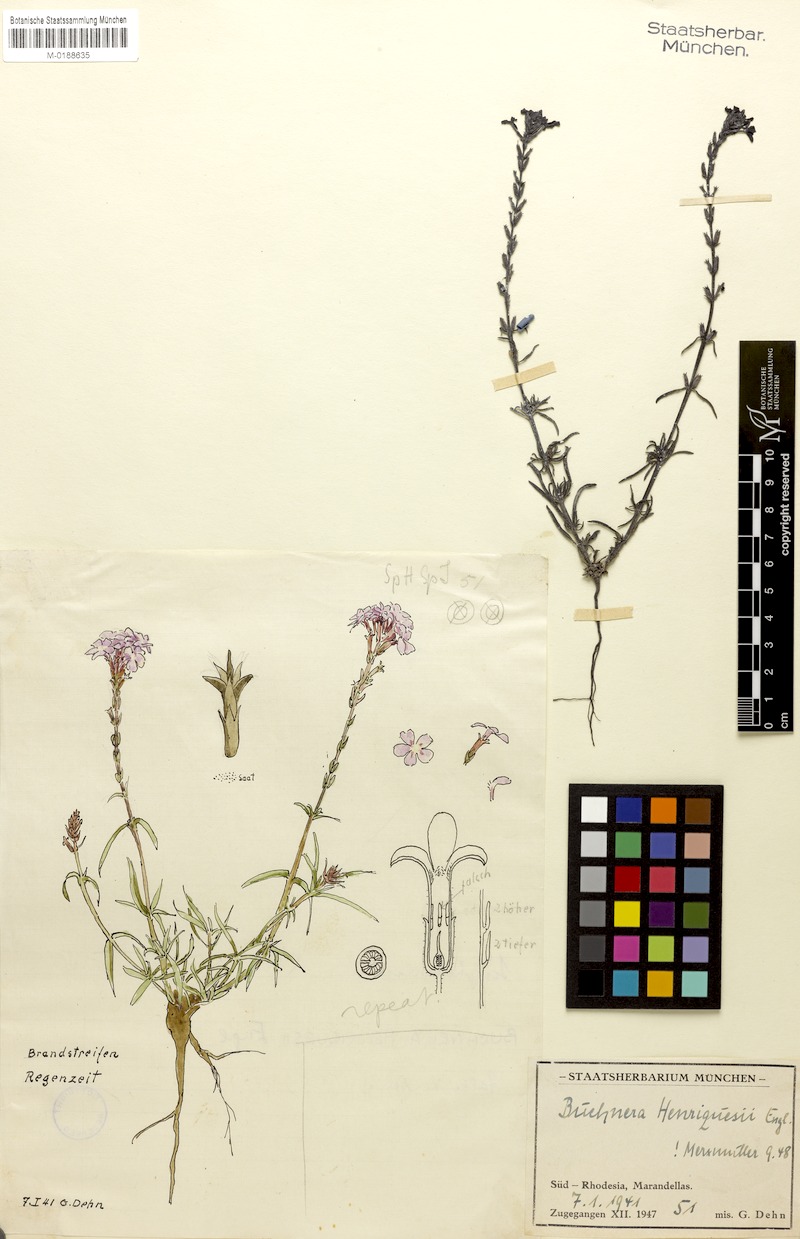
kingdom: Plantae
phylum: Tracheophyta
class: Magnoliopsida
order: Lamiales
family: Orobanchaceae
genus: Buchnera
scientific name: Buchnera henriquesii
